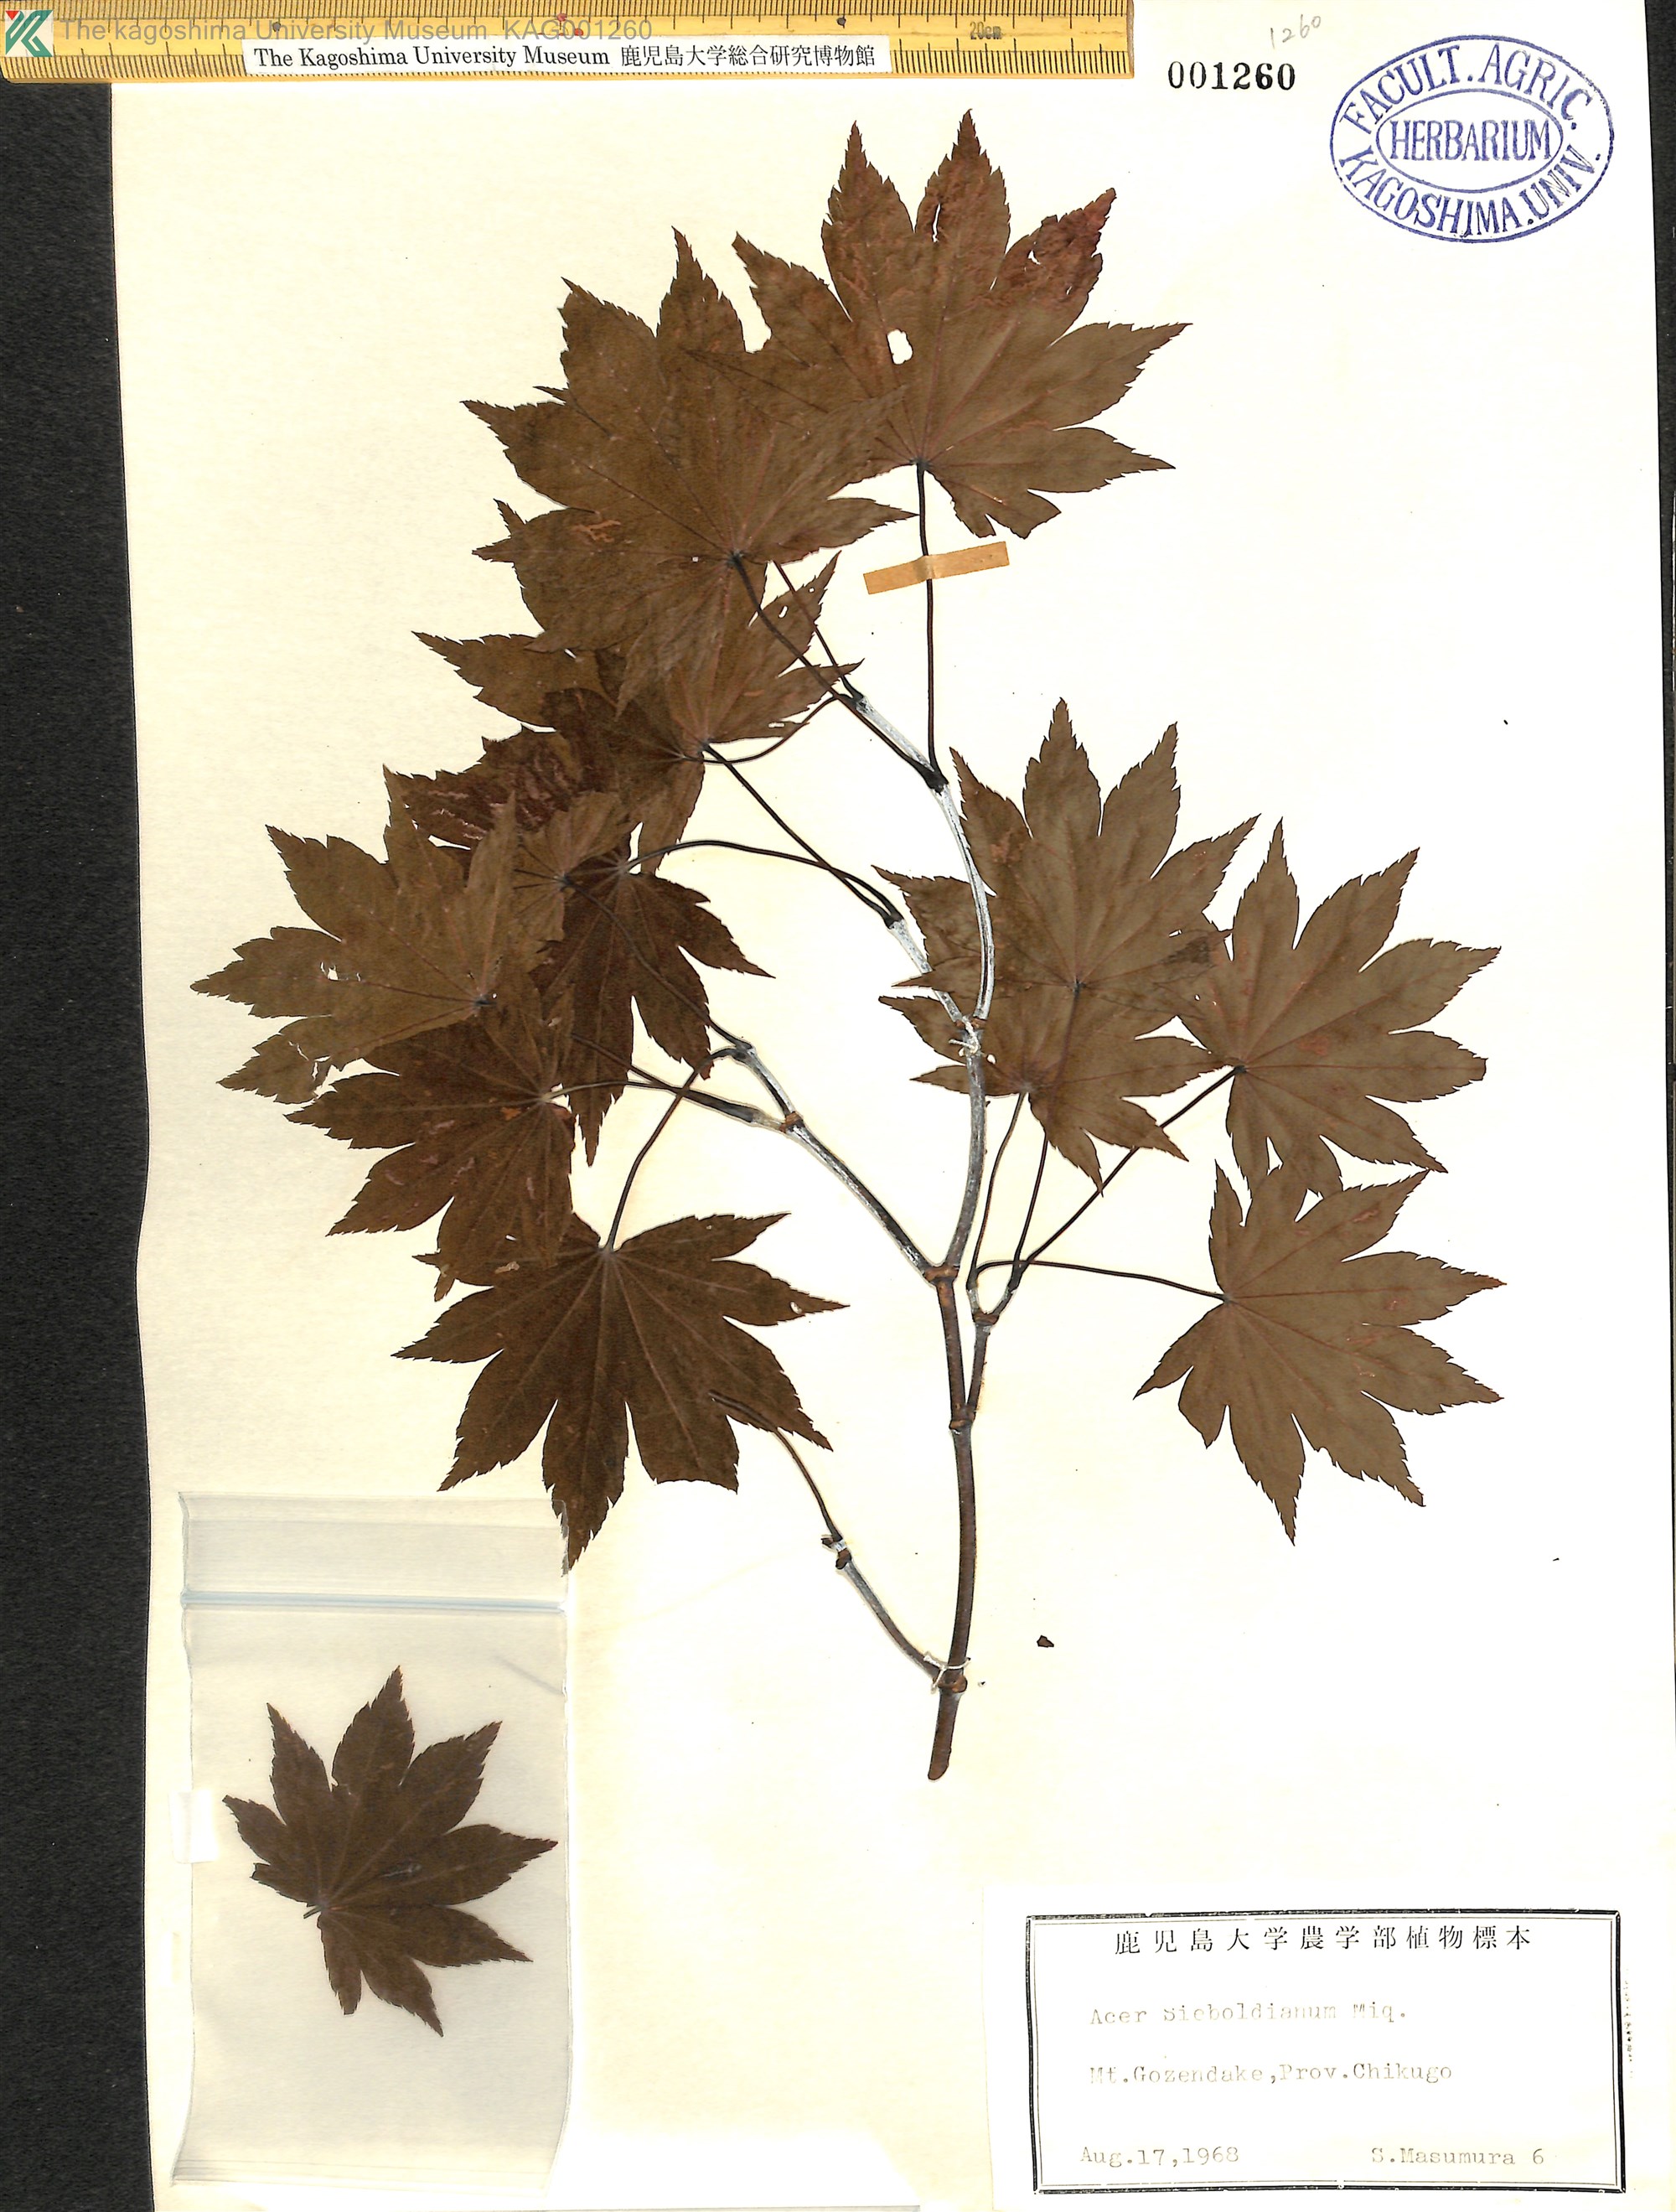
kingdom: Plantae
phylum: Tracheophyta
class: Magnoliopsida
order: Sapindales
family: Sapindaceae
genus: Acer
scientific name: Acer sieboldianum
